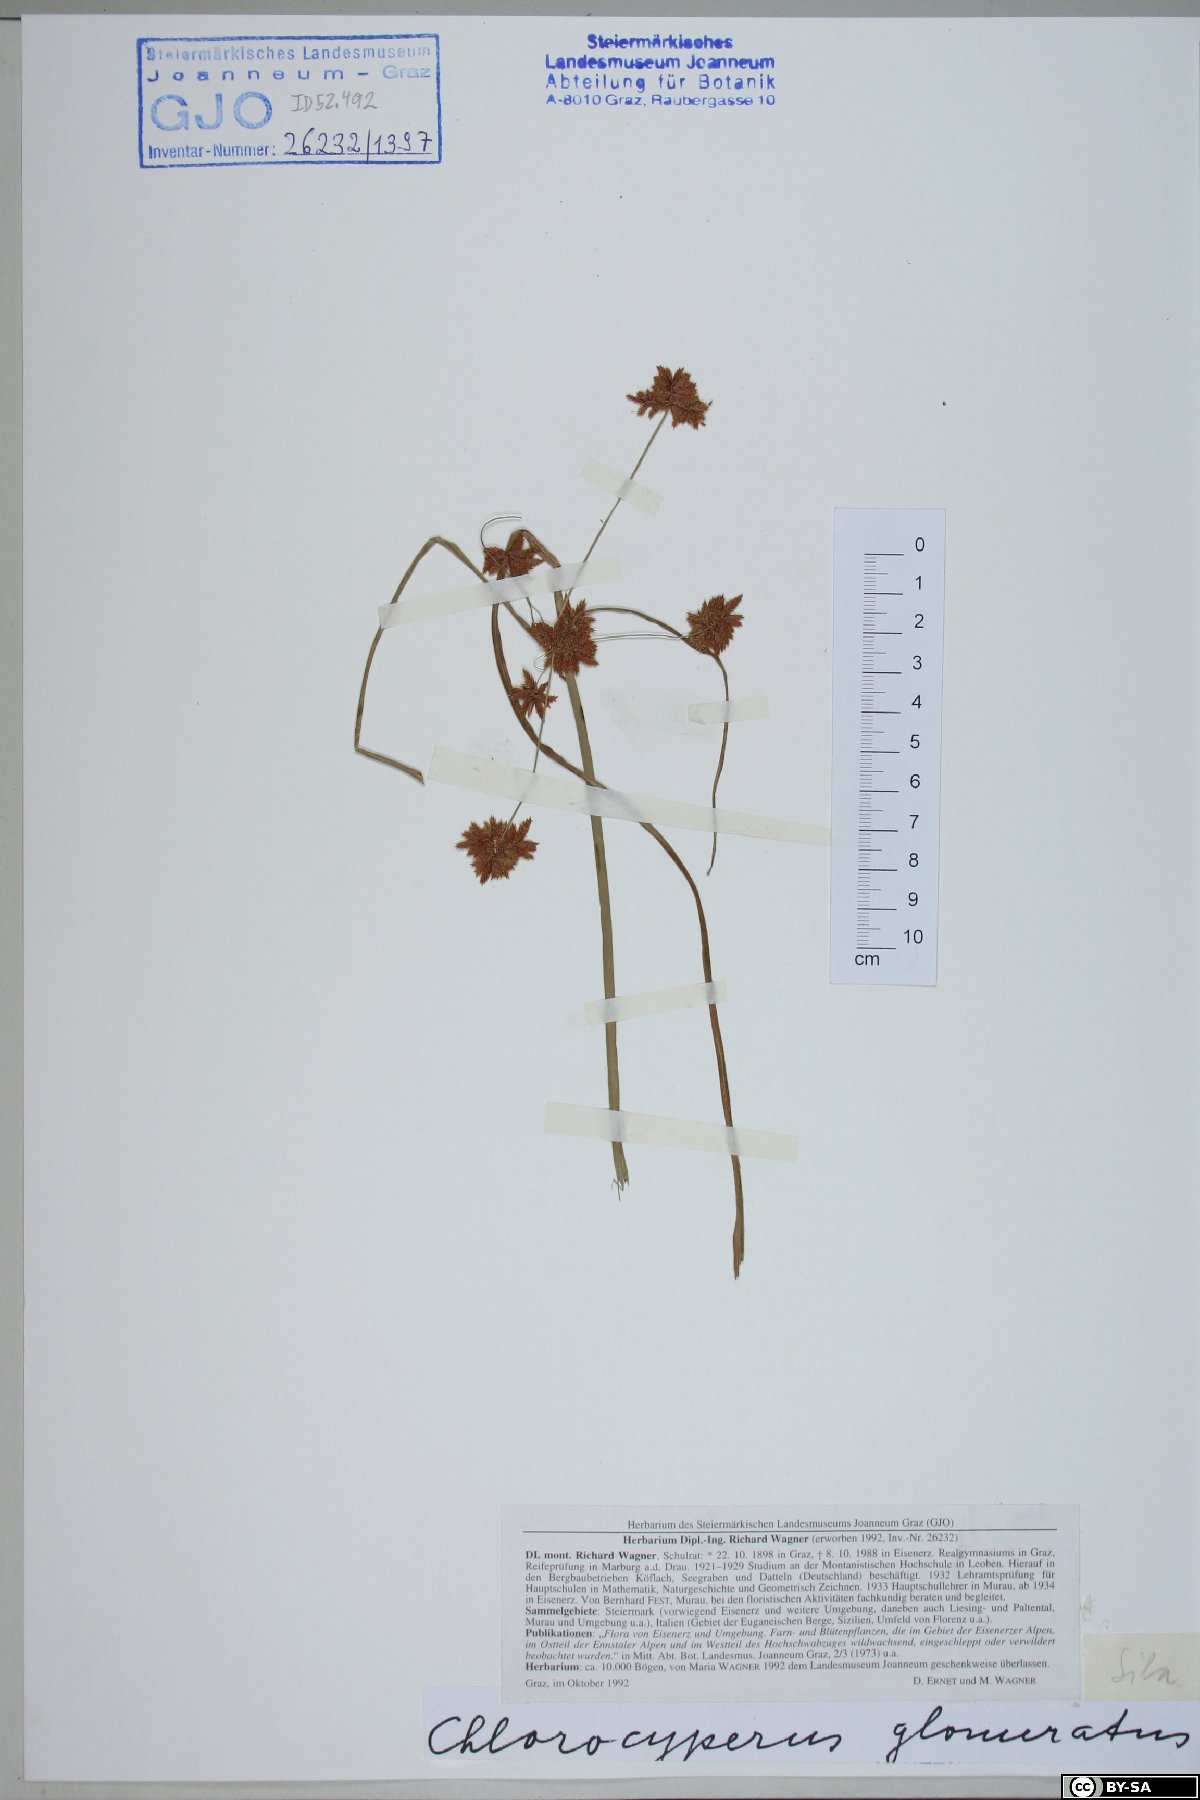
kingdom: Plantae
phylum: Tracheophyta
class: Liliopsida
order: Poales
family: Cyperaceae
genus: Cyperus
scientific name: Cyperus glomeratus
